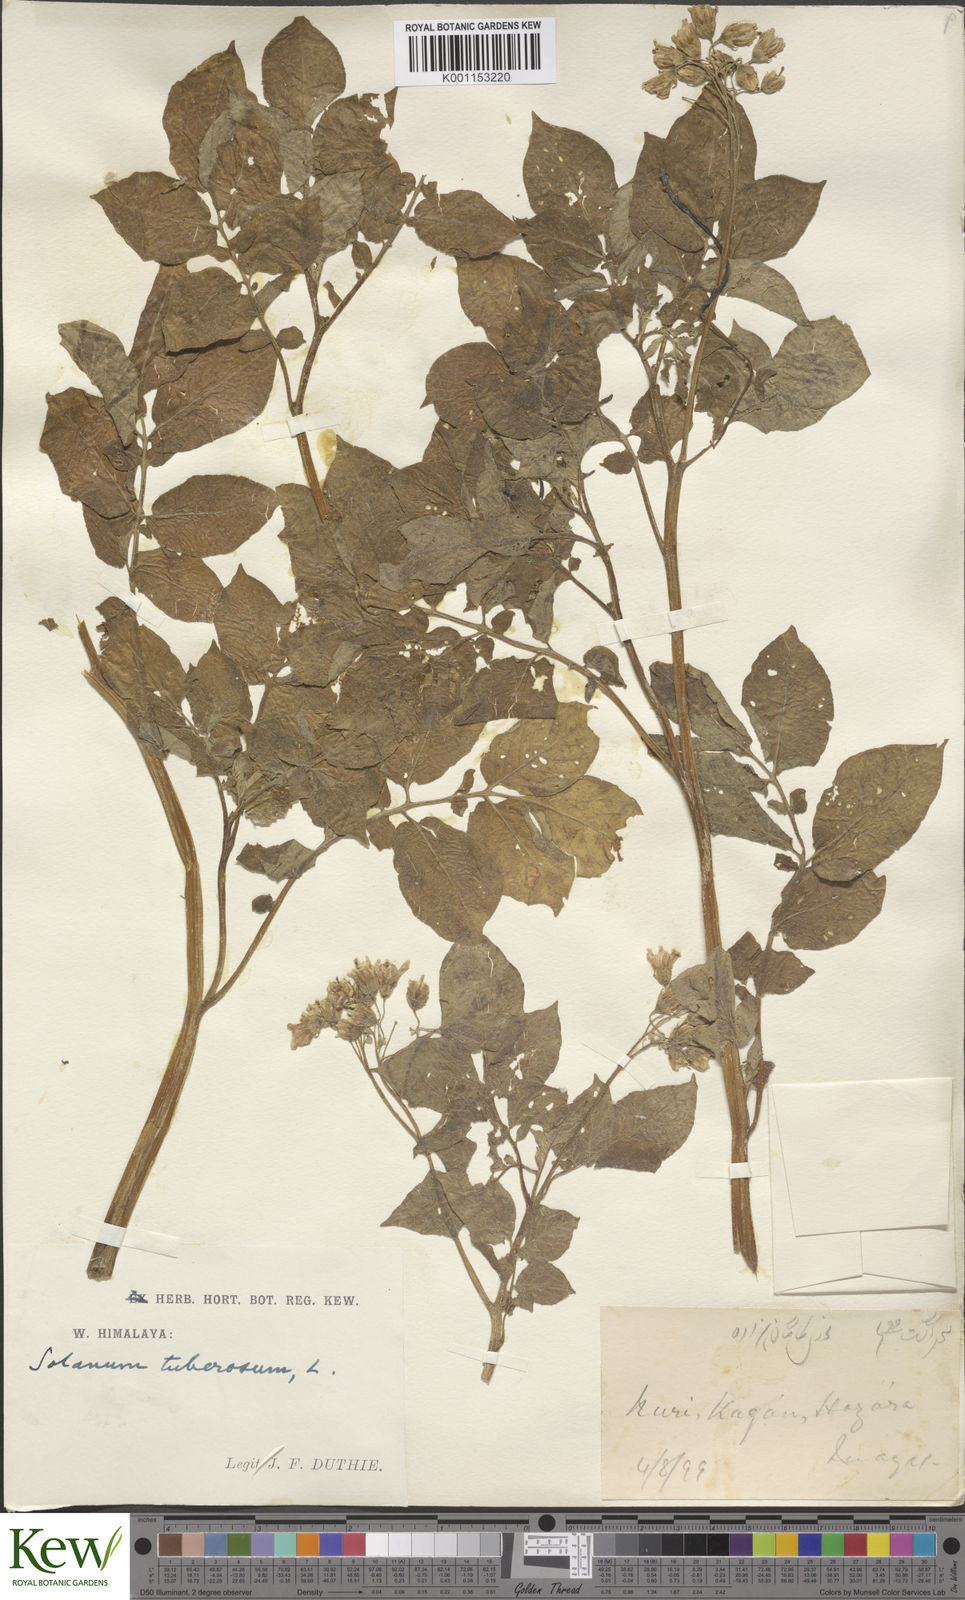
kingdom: Plantae
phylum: Tracheophyta
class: Magnoliopsida
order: Solanales
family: Solanaceae
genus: Solanum
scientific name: Solanum tuberosum
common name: Potato
